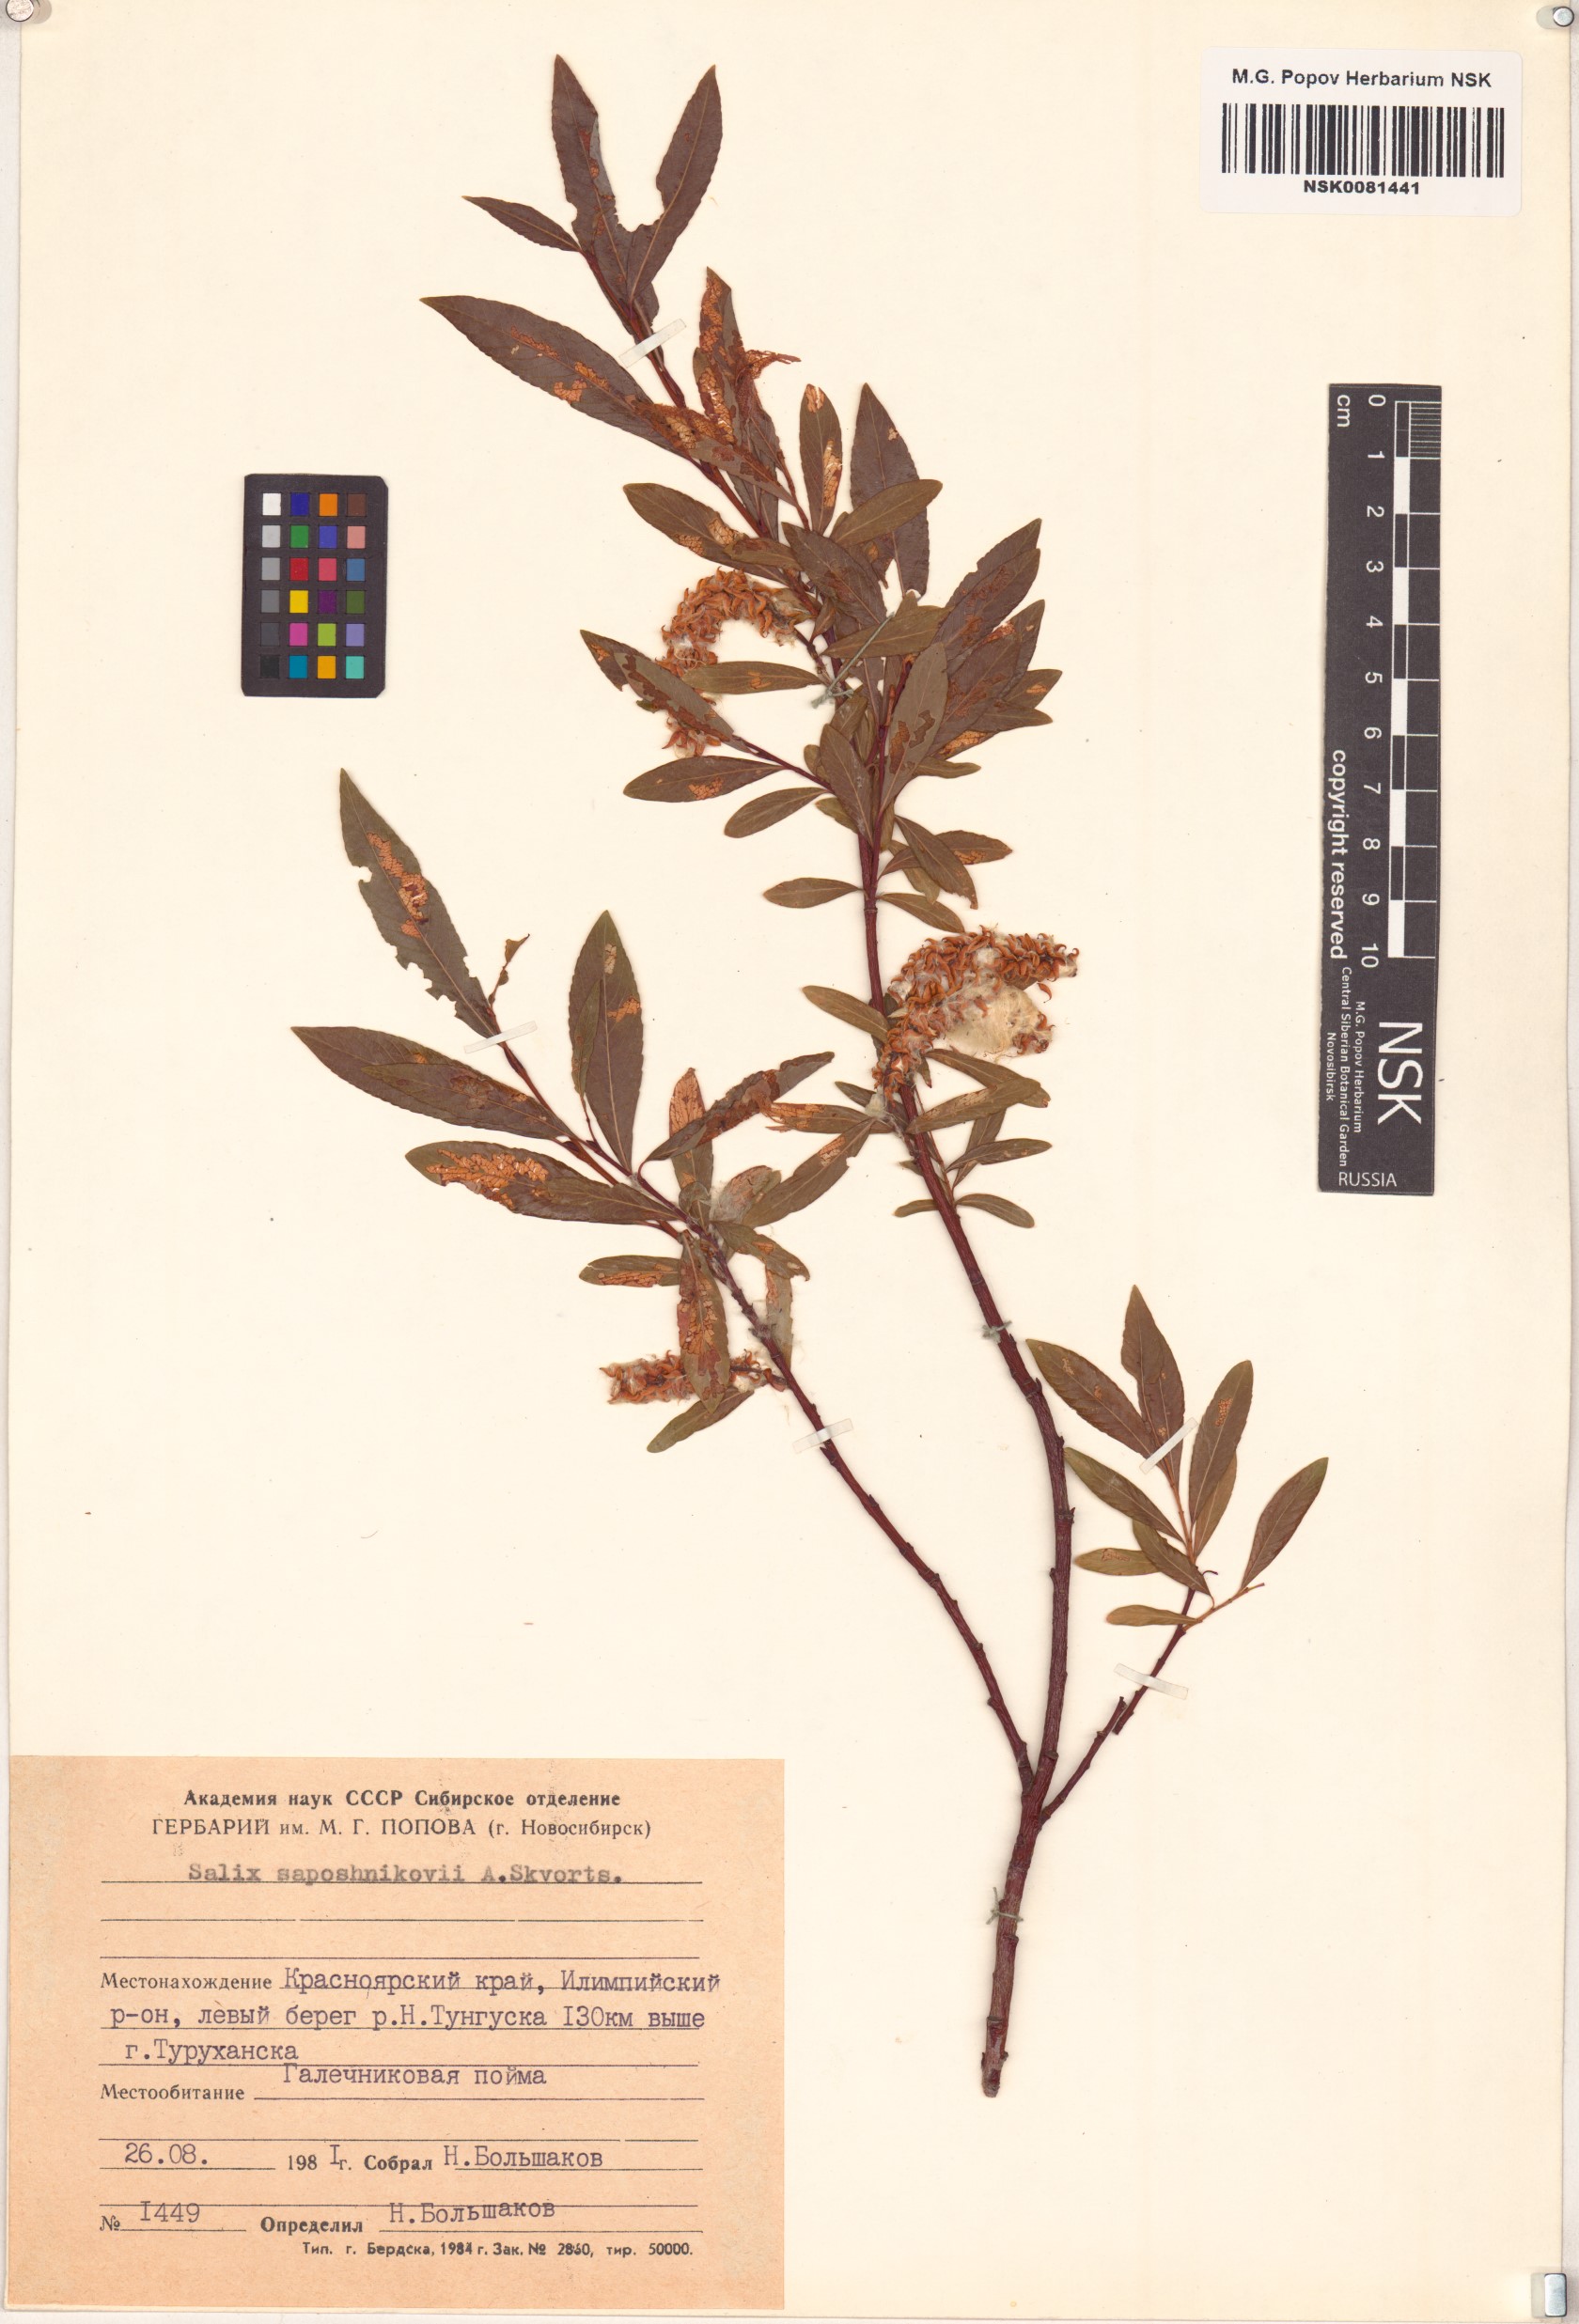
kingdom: Plantae
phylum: Tracheophyta
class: Magnoliopsida
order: Malpighiales
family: Salicaceae
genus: Salix
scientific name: Salix saposhnikovii
